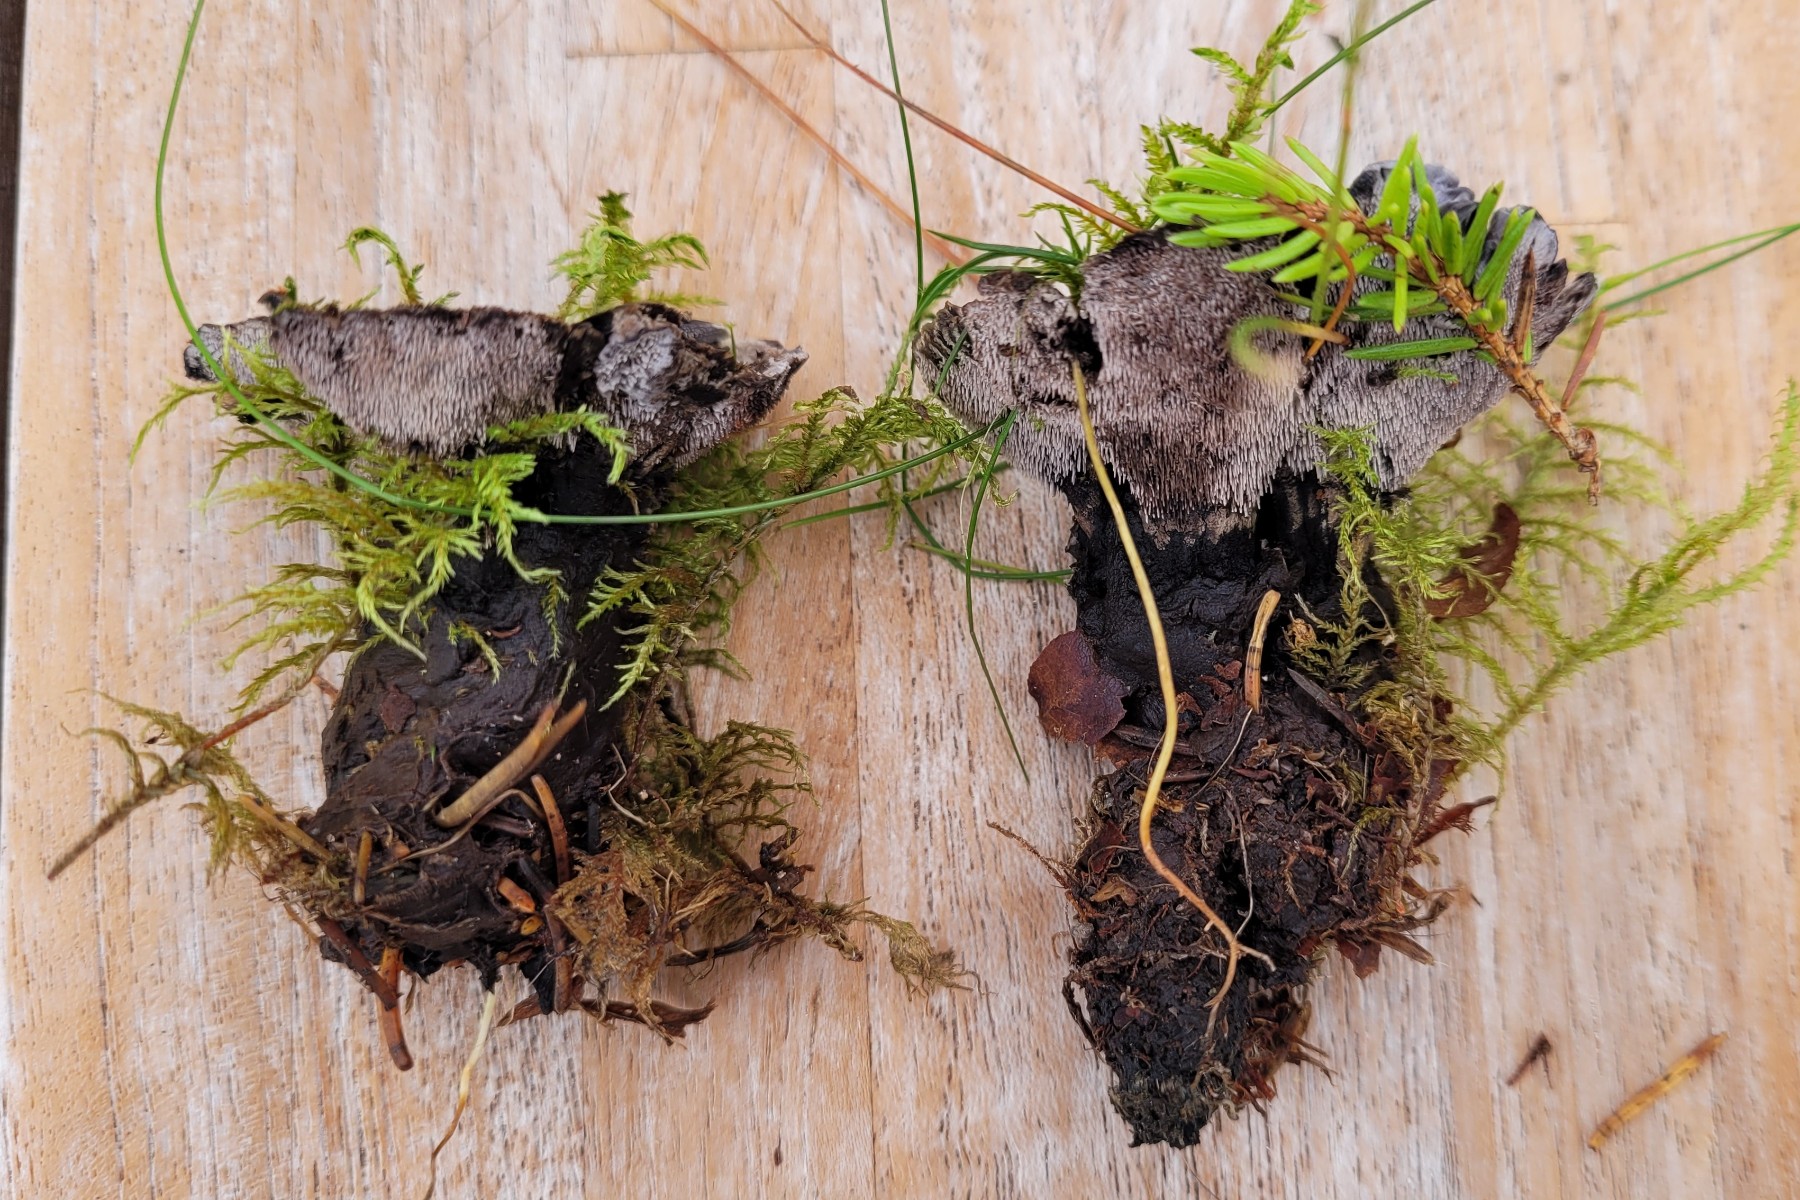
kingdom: Fungi
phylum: Basidiomycota
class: Agaricomycetes
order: Thelephorales
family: Thelephoraceae
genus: Phellodon
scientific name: Phellodon
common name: mørk duftpigsvamp
